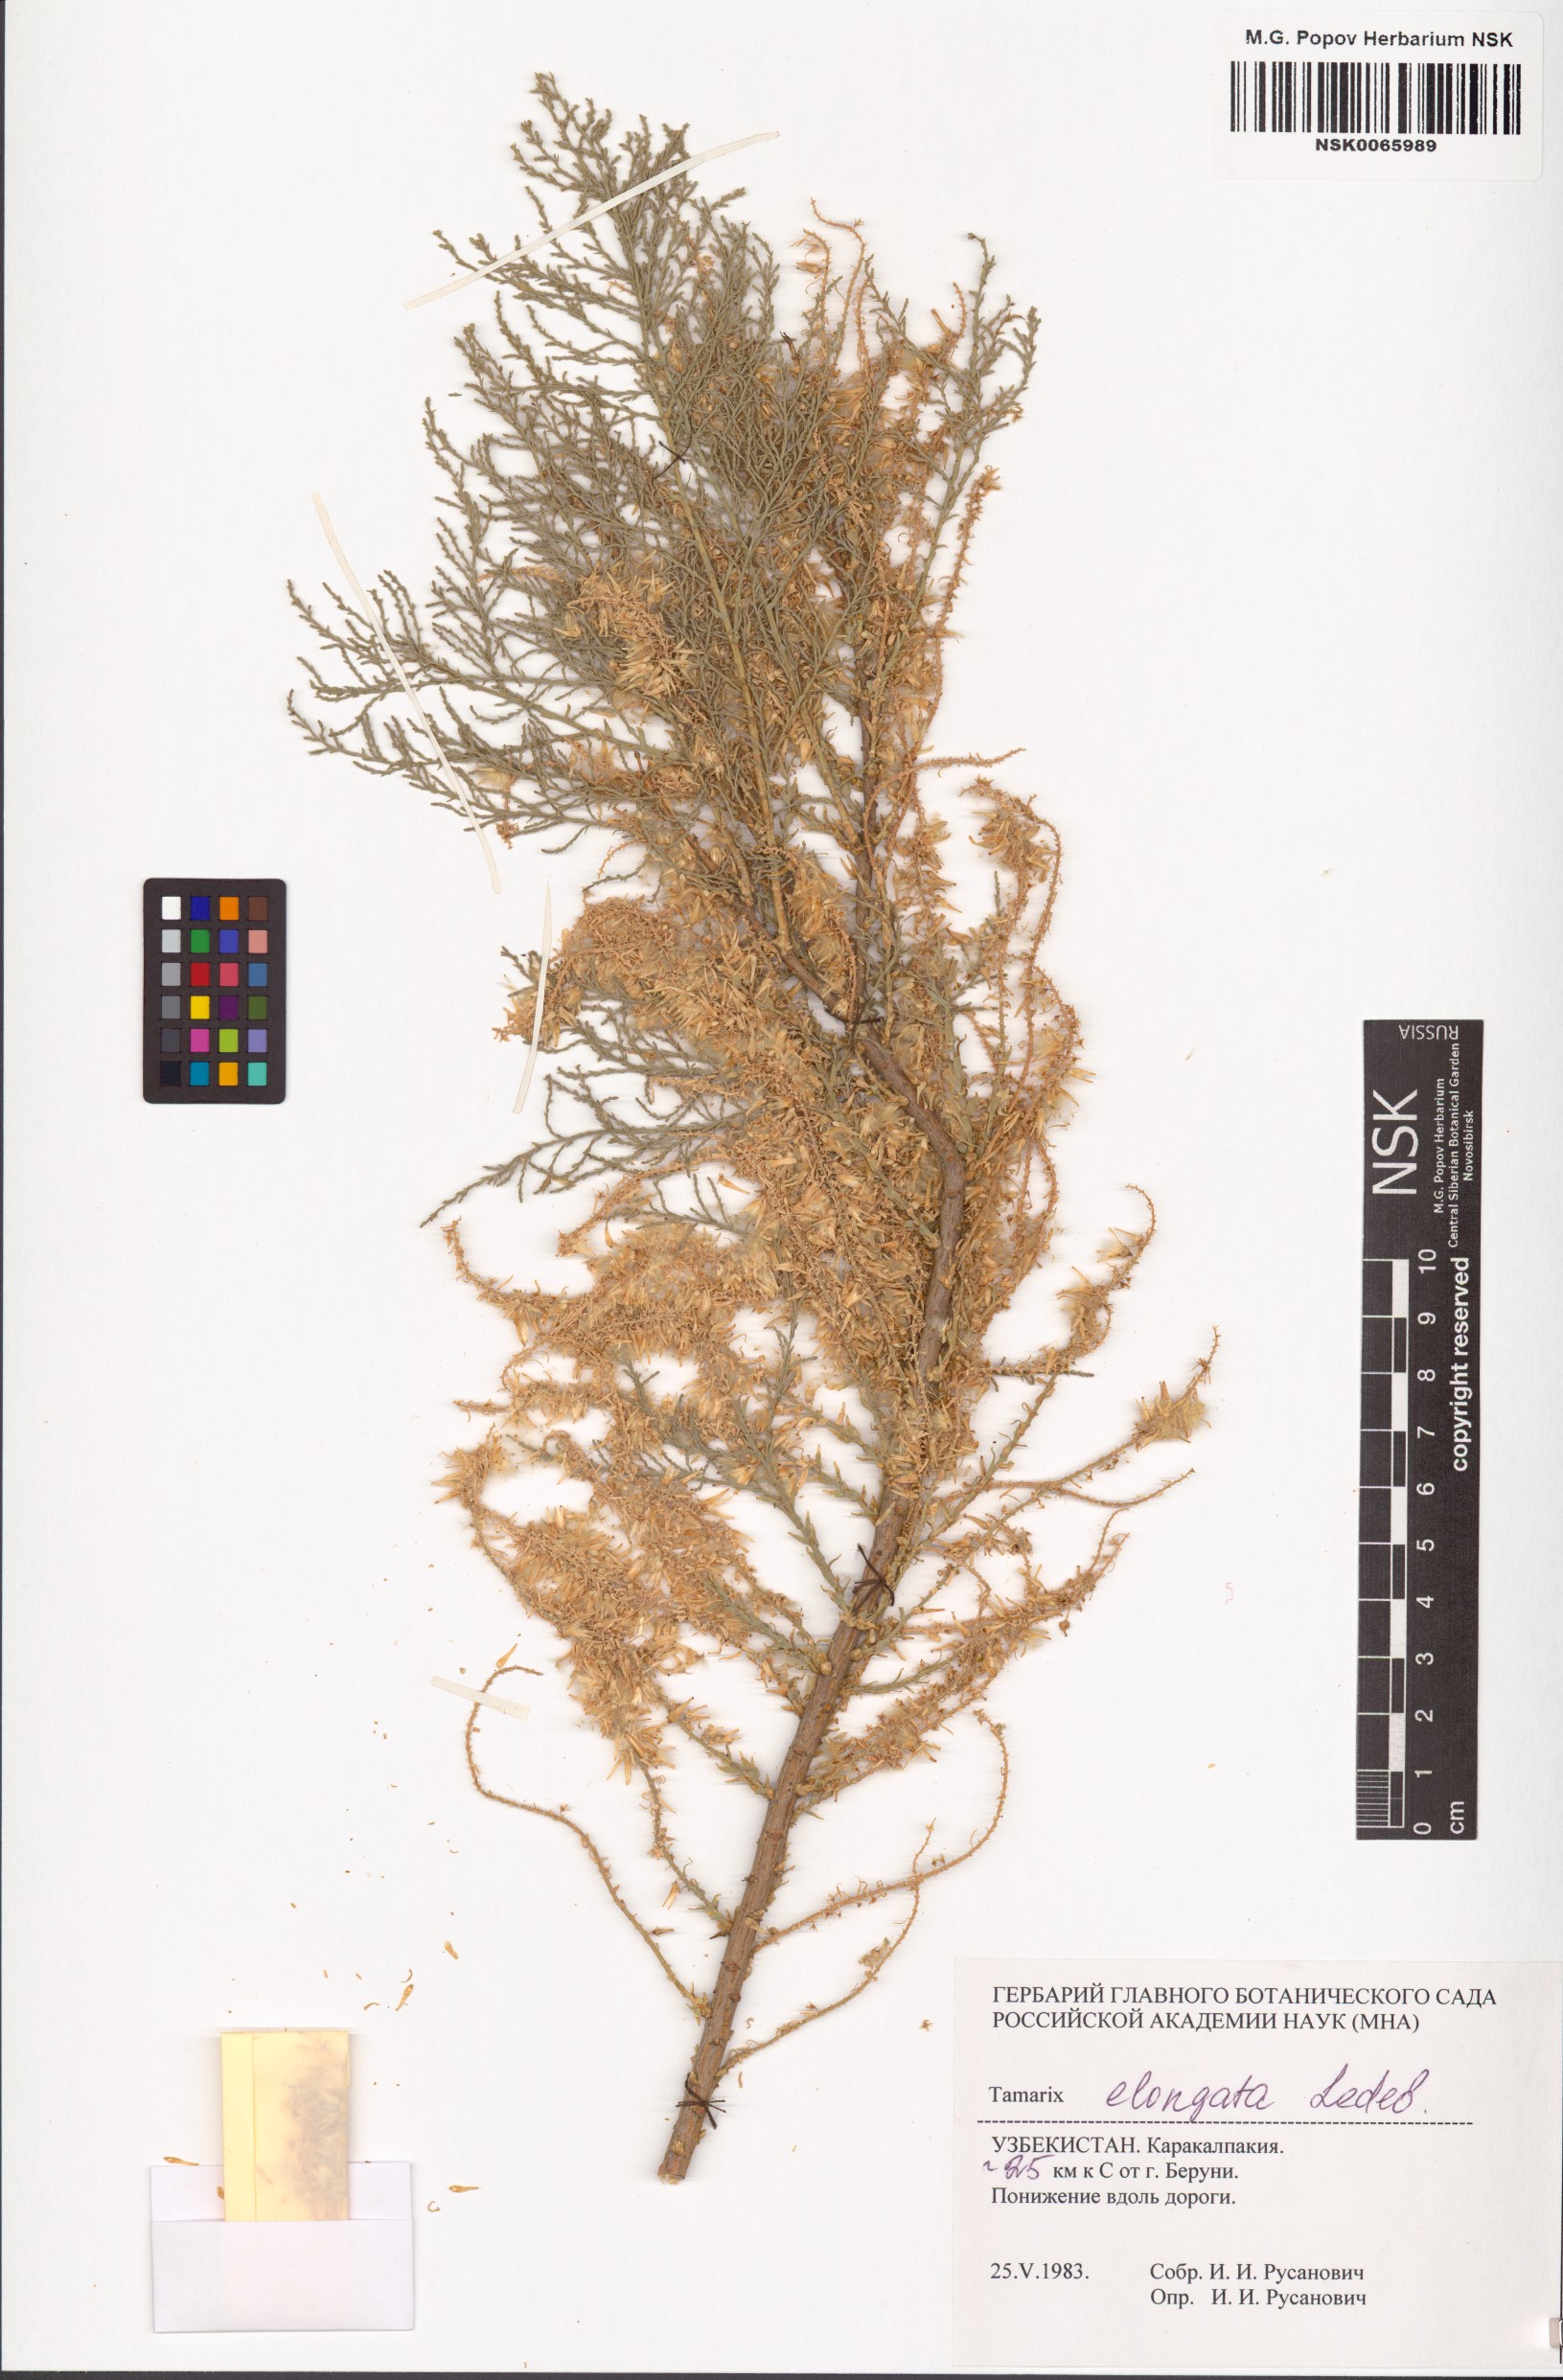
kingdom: Plantae
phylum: Tracheophyta
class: Magnoliopsida
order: Caryophyllales
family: Tamaricaceae
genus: Tamarix
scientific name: Tamarix elongata
